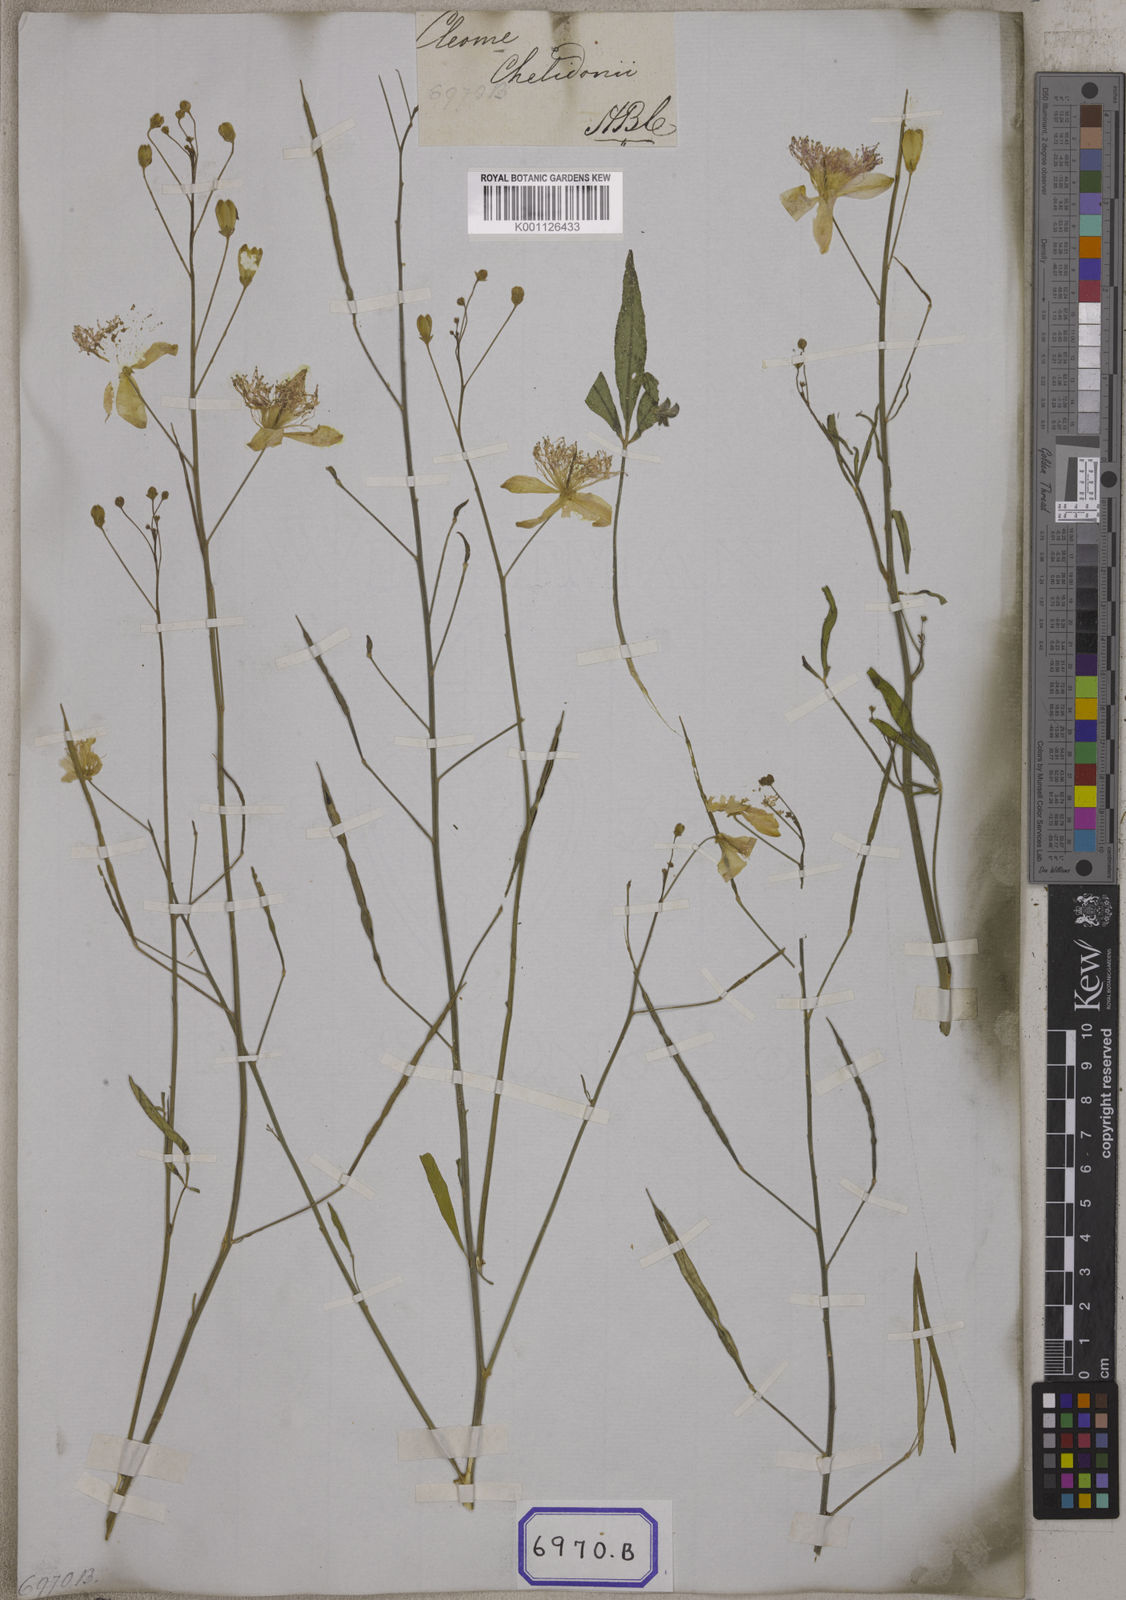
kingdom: Plantae
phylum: Tracheophyta
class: Magnoliopsida
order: Brassicales
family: Cleomaceae
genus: Corynandra
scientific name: Corynandra chelidonii
